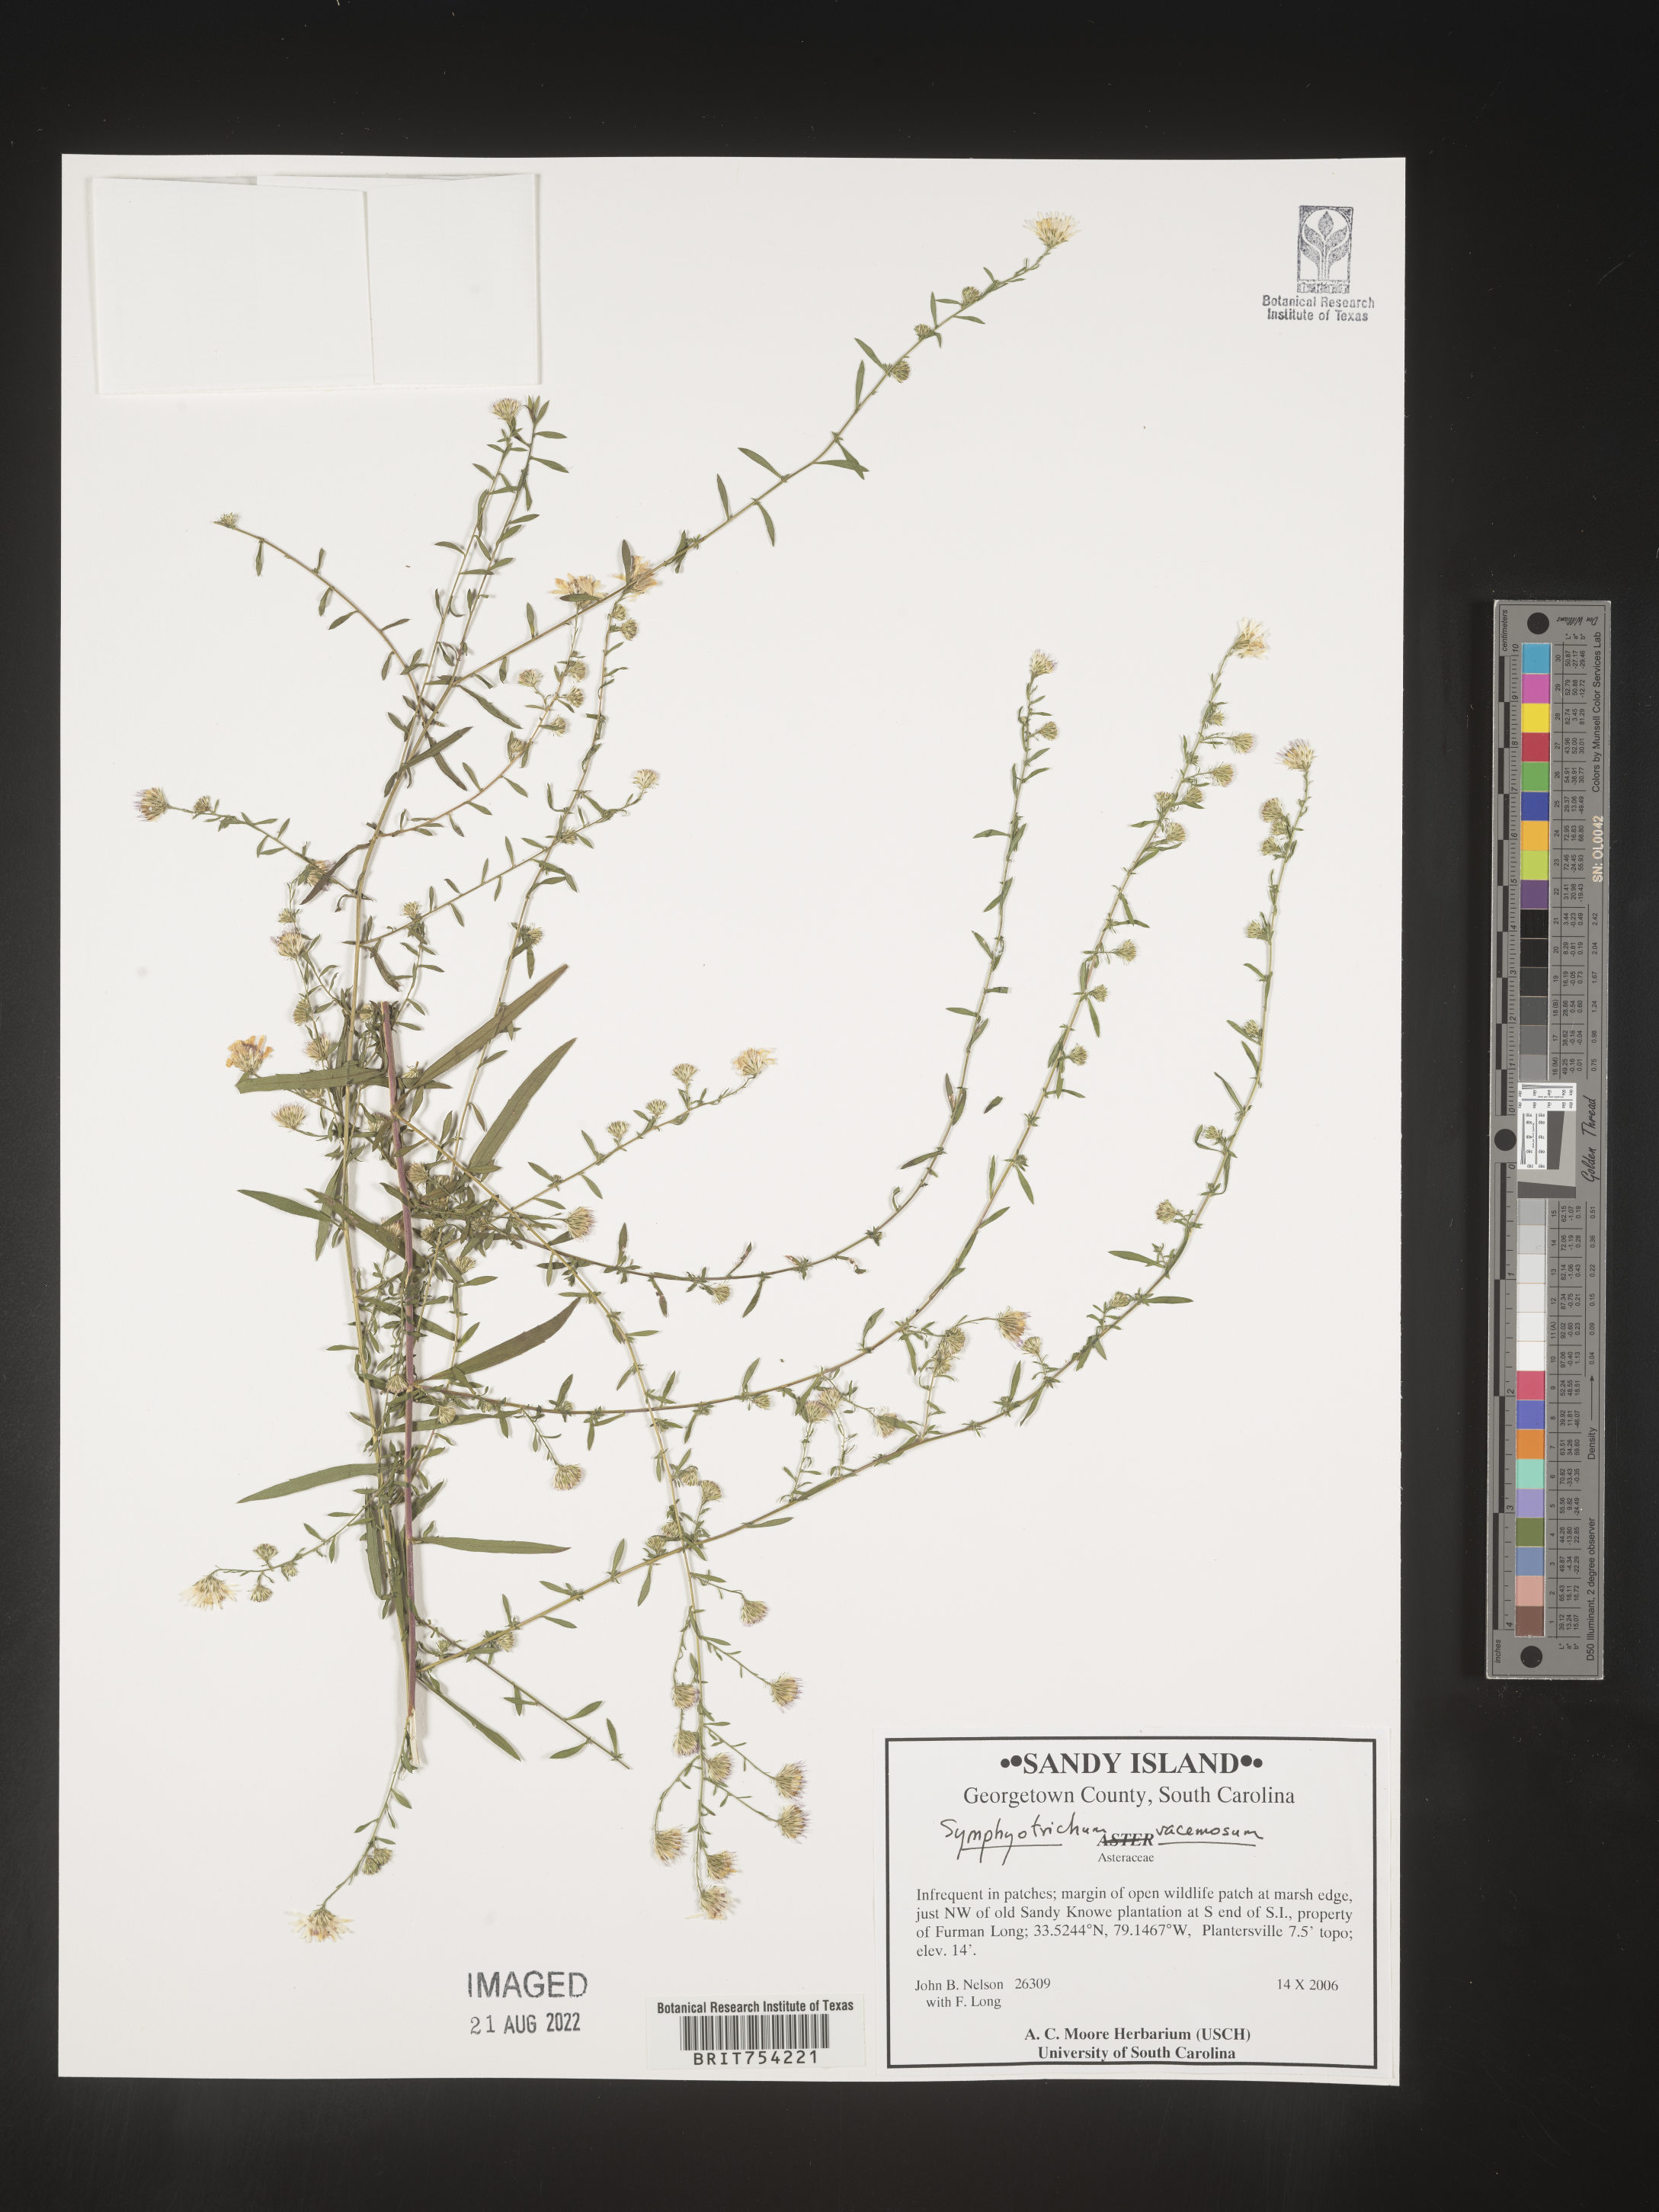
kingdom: Plantae
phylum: Tracheophyta
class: Magnoliopsida
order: Asterales
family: Asteraceae
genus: Symphyotrichum
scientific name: Symphyotrichum racemosum
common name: Small white aster
